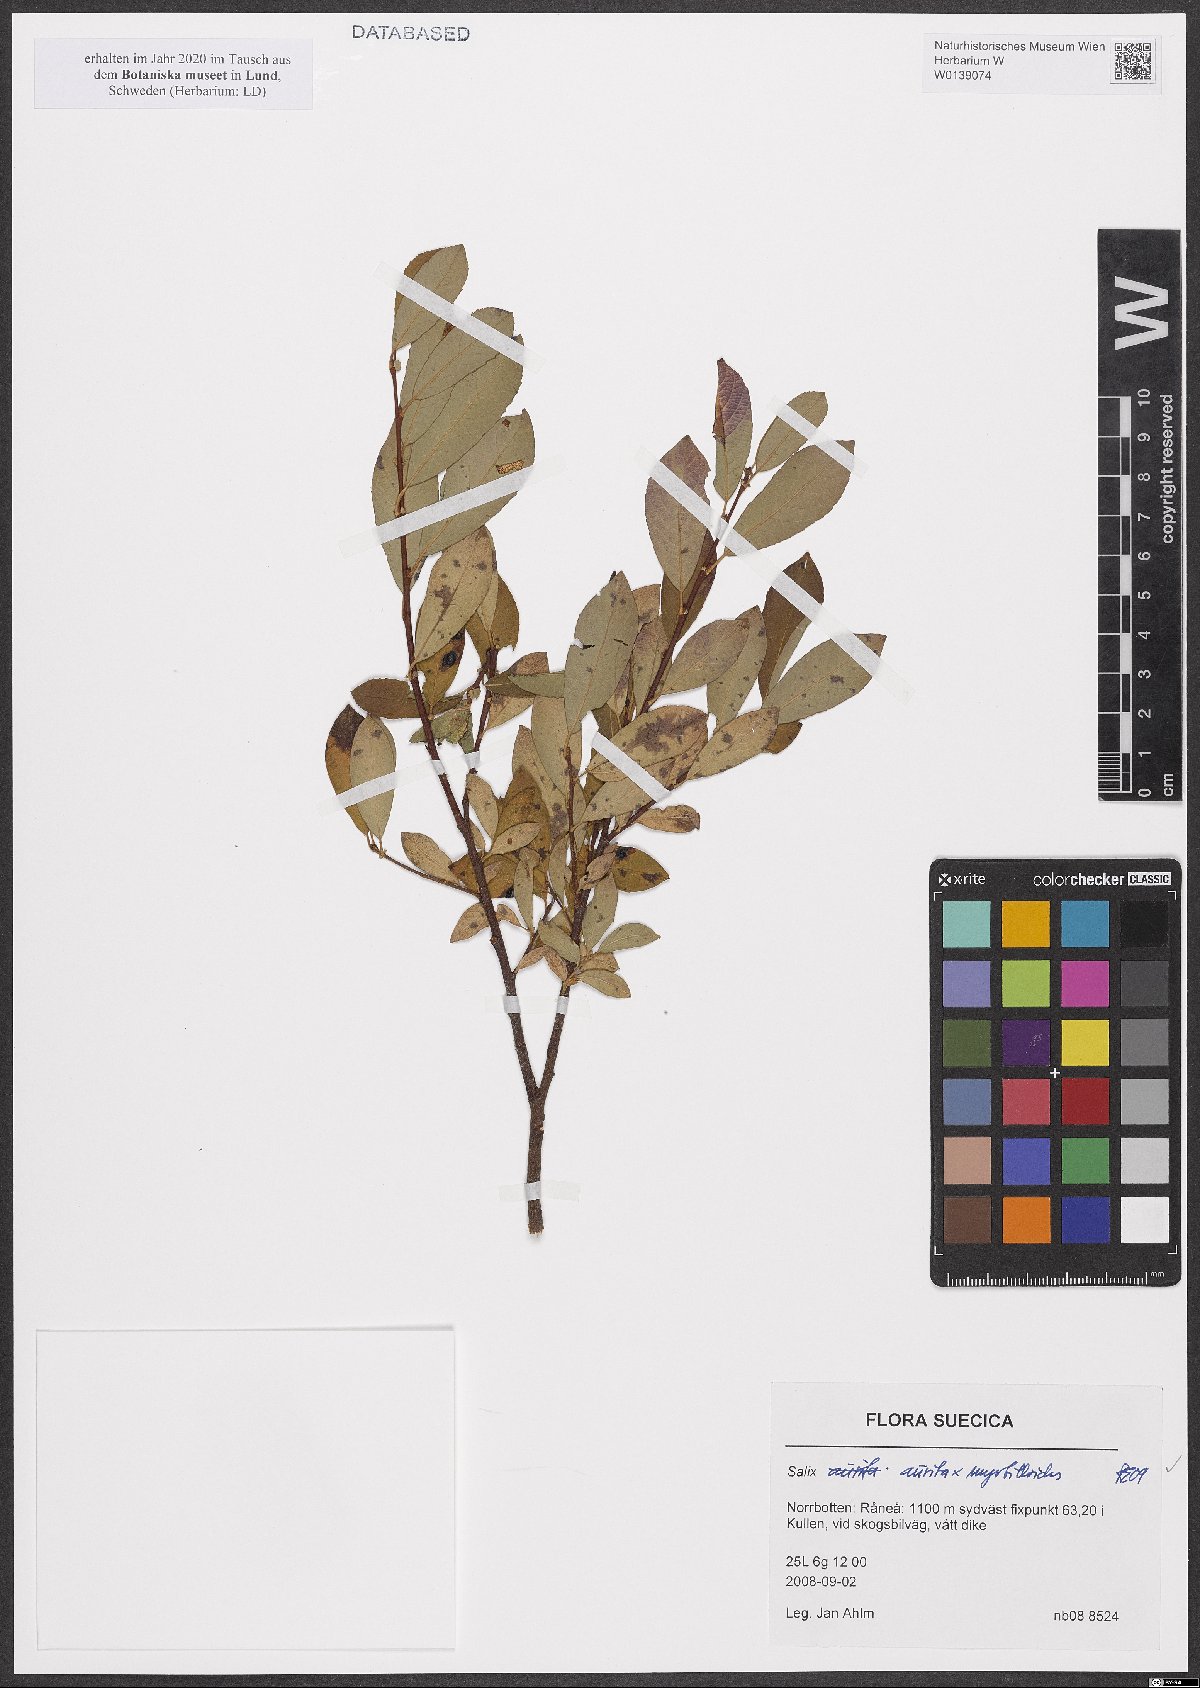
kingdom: Plantae
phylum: Tracheophyta
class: Magnoliopsida
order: Malpighiales
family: Salicaceae
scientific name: Salicaceae
